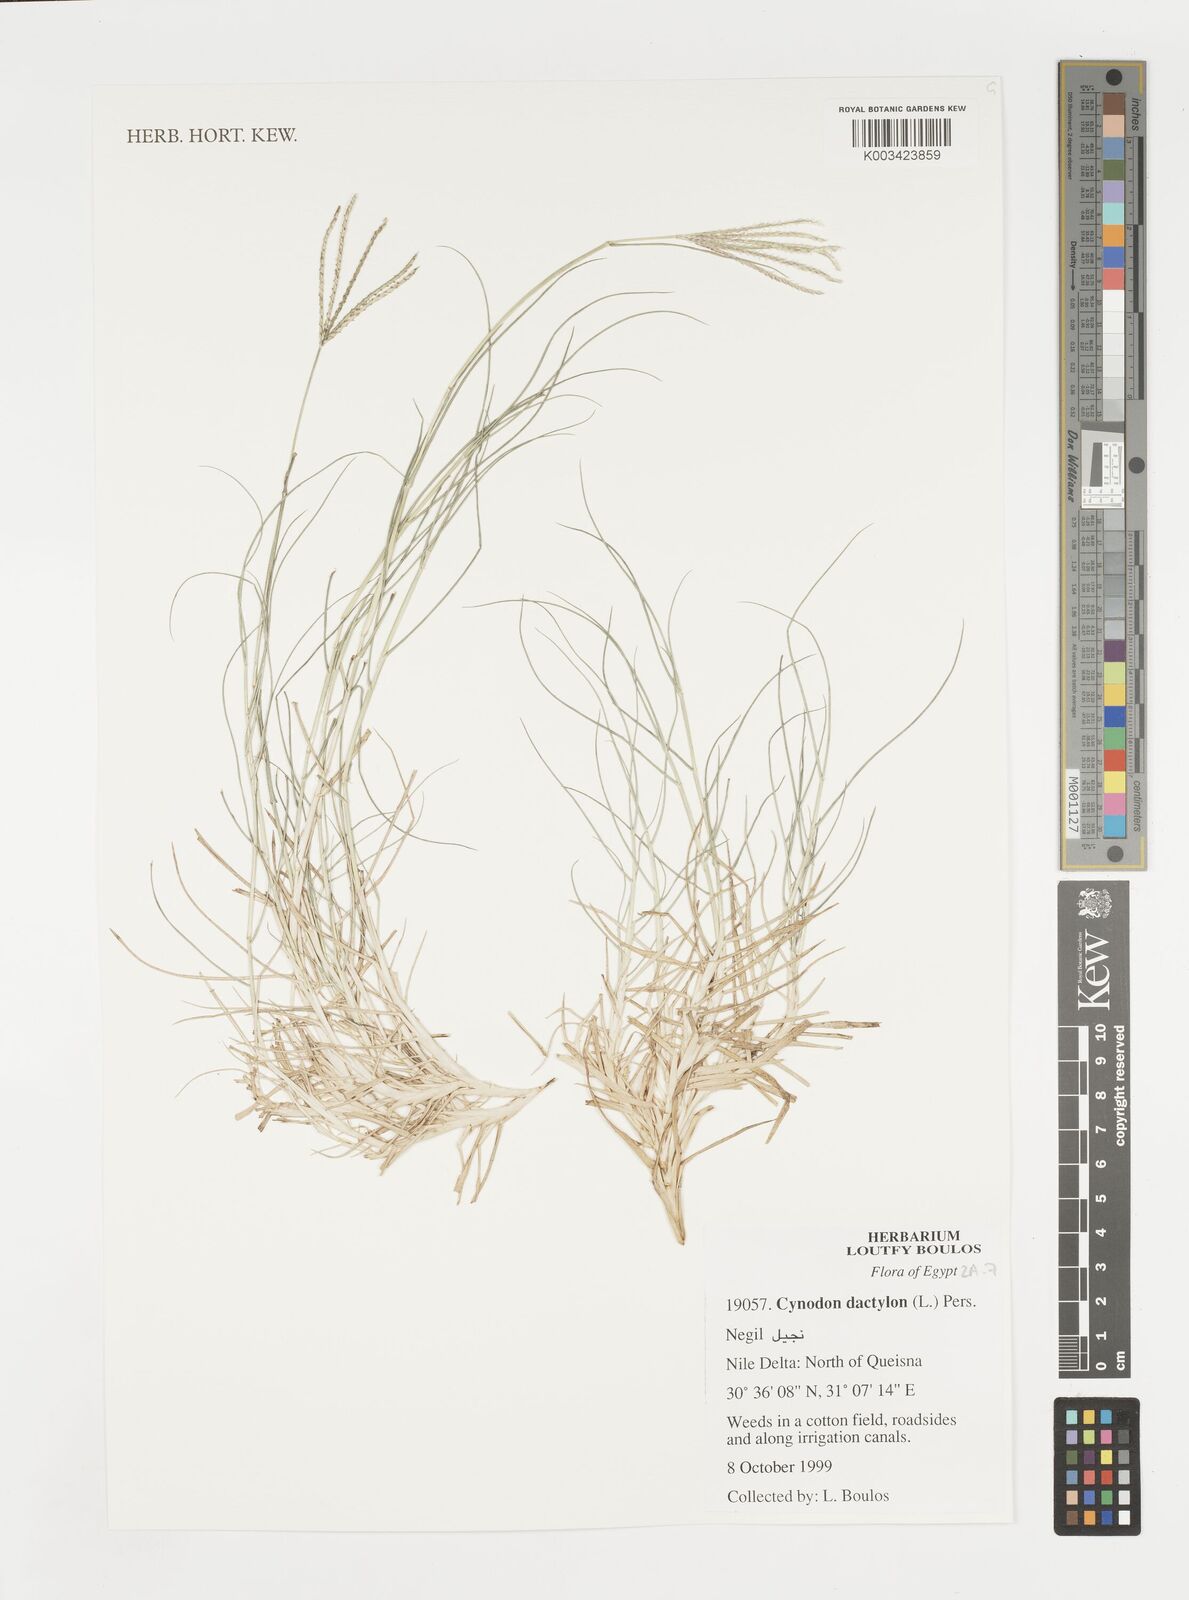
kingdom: Plantae
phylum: Tracheophyta
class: Liliopsida
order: Poales
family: Poaceae
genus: Cynodon
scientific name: Cynodon dactylon
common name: Bermuda grass
